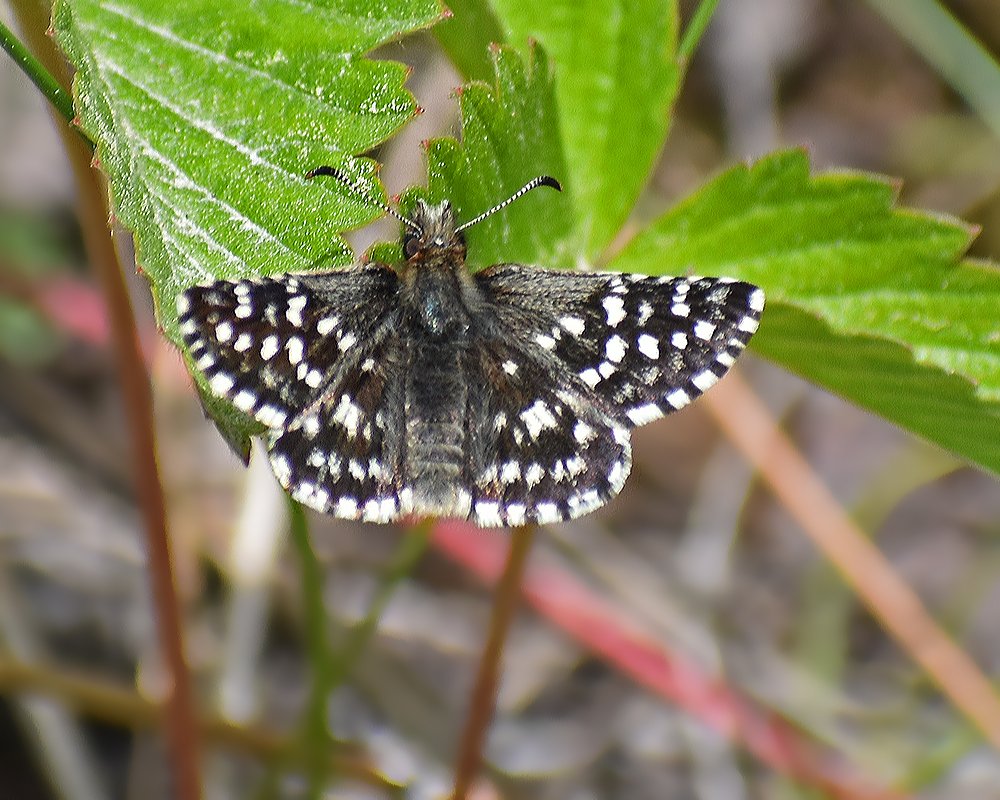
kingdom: Animalia
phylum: Arthropoda
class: Insecta
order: Lepidoptera
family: Hesperiidae
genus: Pyrgus
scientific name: Pyrgus ruralis
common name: Two-banded Checkered-Skipper
